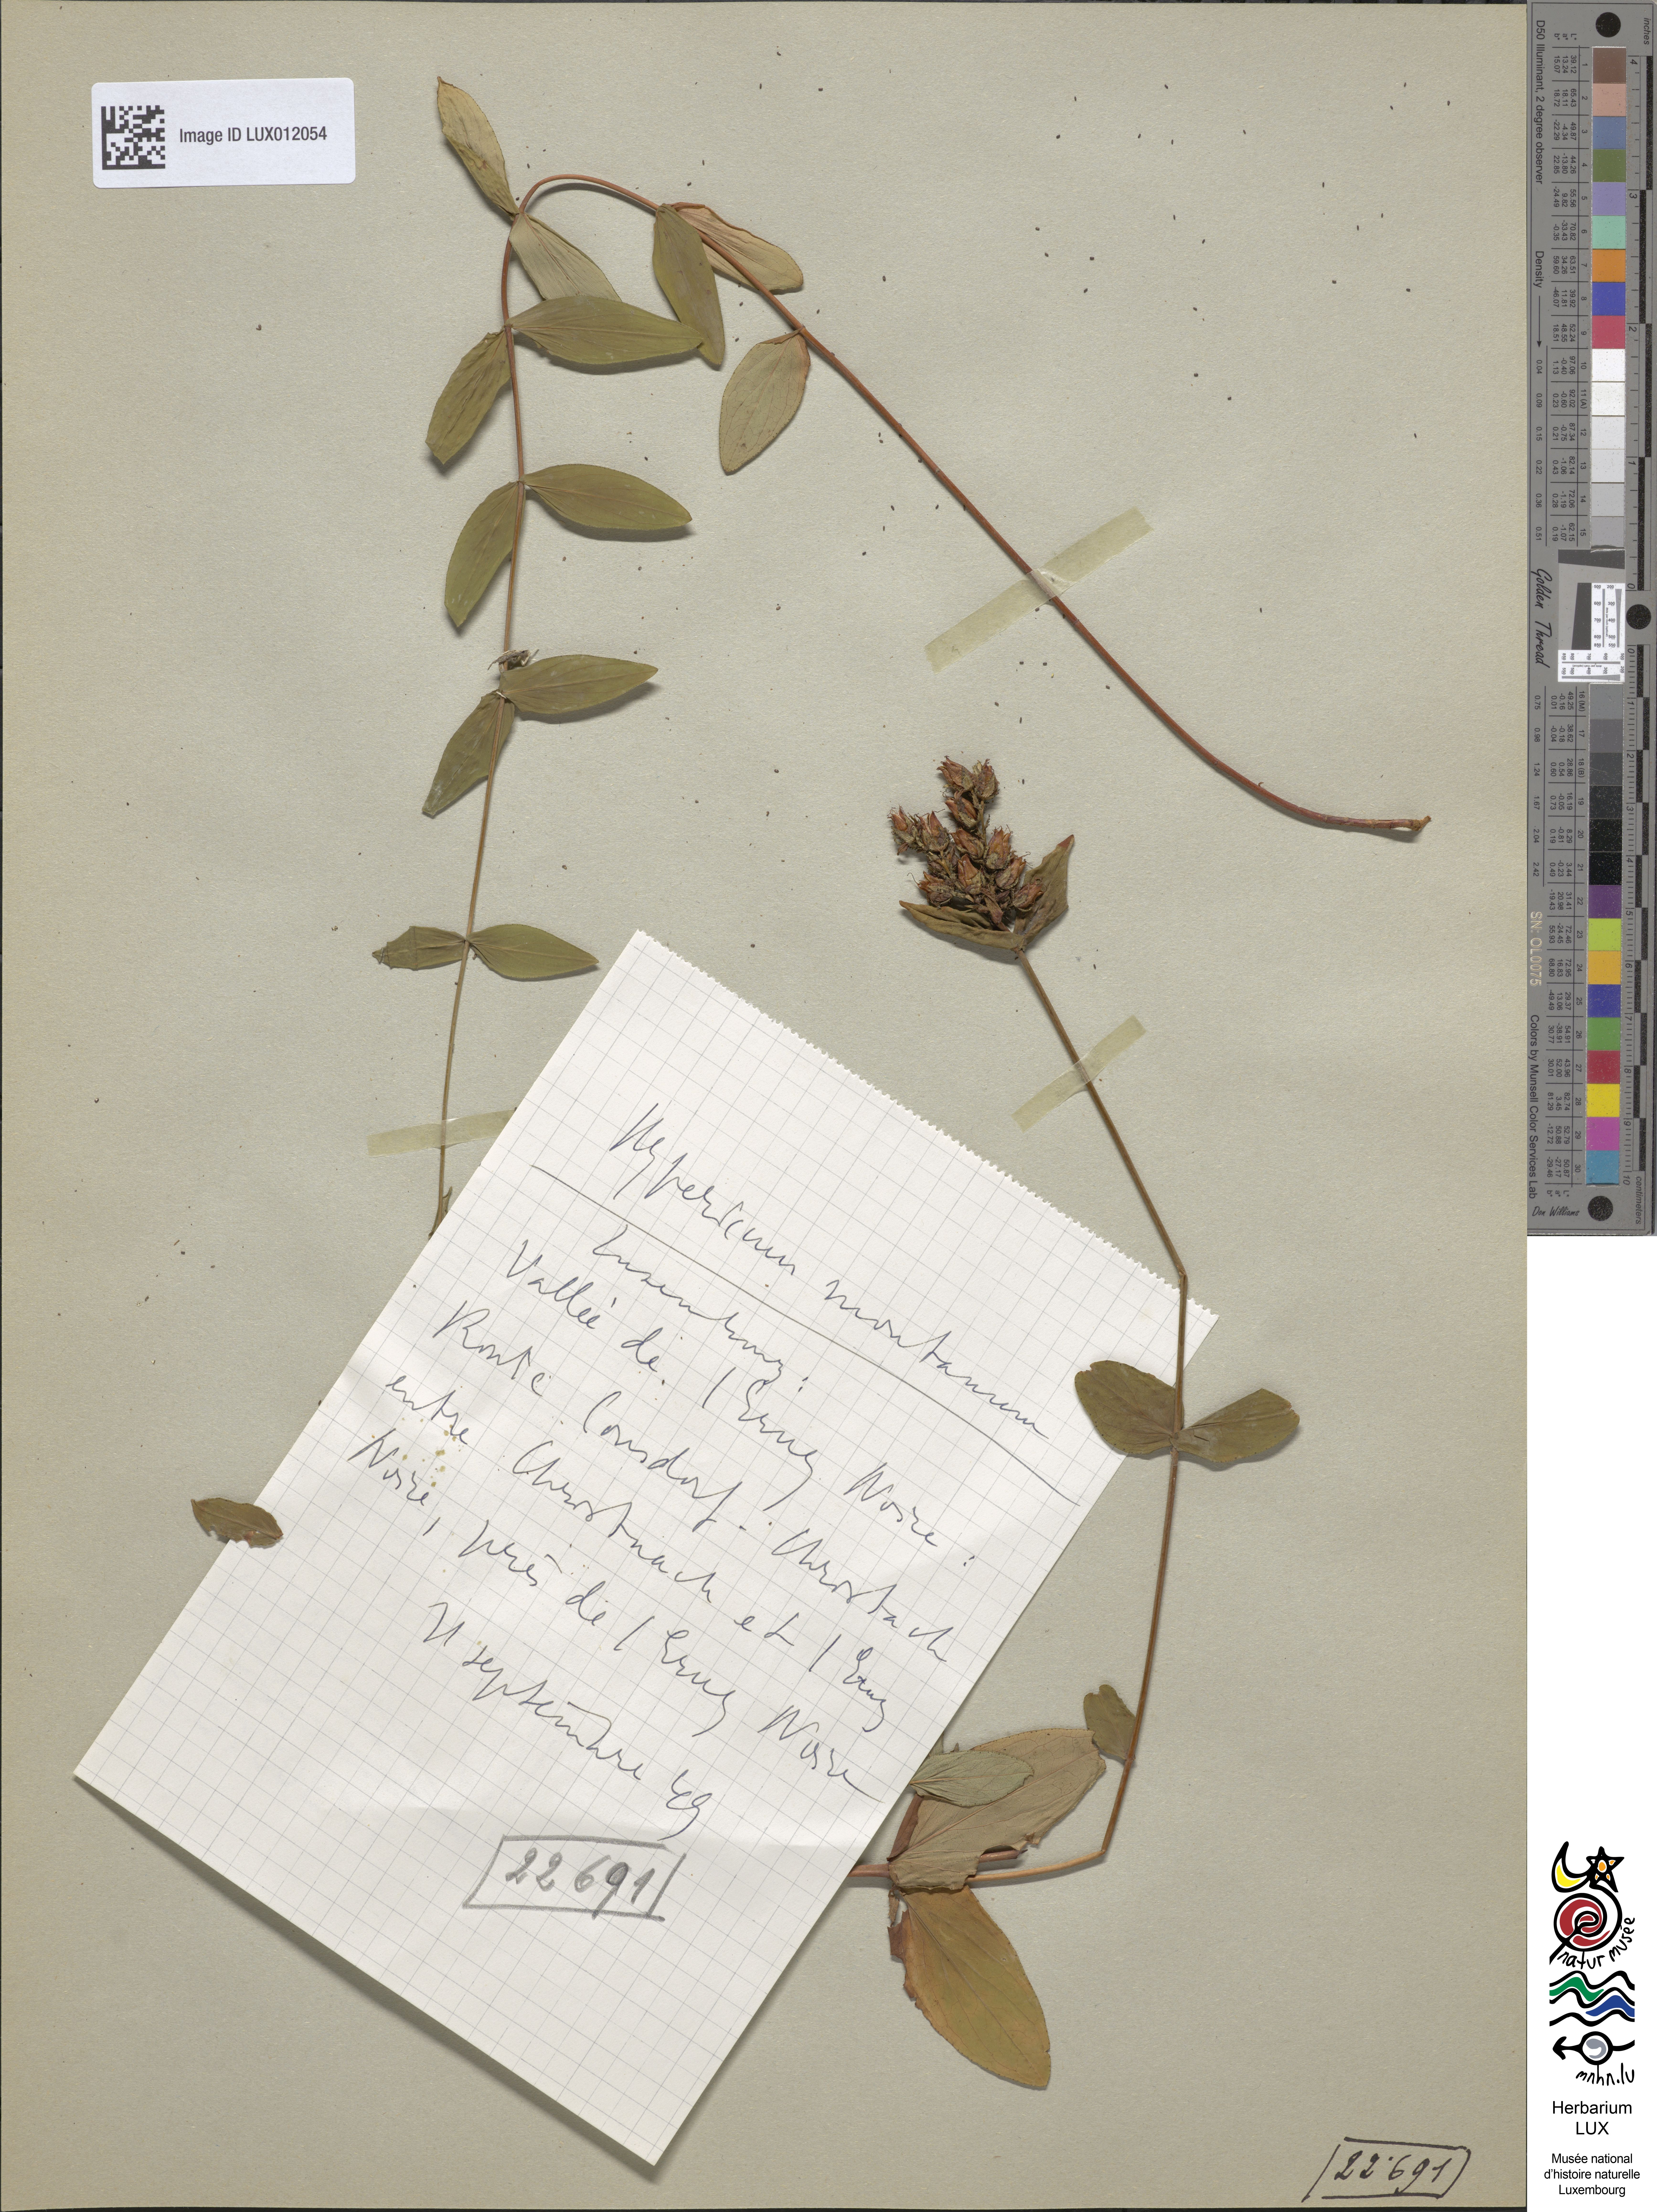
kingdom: Plantae
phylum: Tracheophyta
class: Magnoliopsida
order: Malpighiales
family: Hypericaceae
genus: Hypericum
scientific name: Hypericum montanum
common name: Pale st. john's-wort
